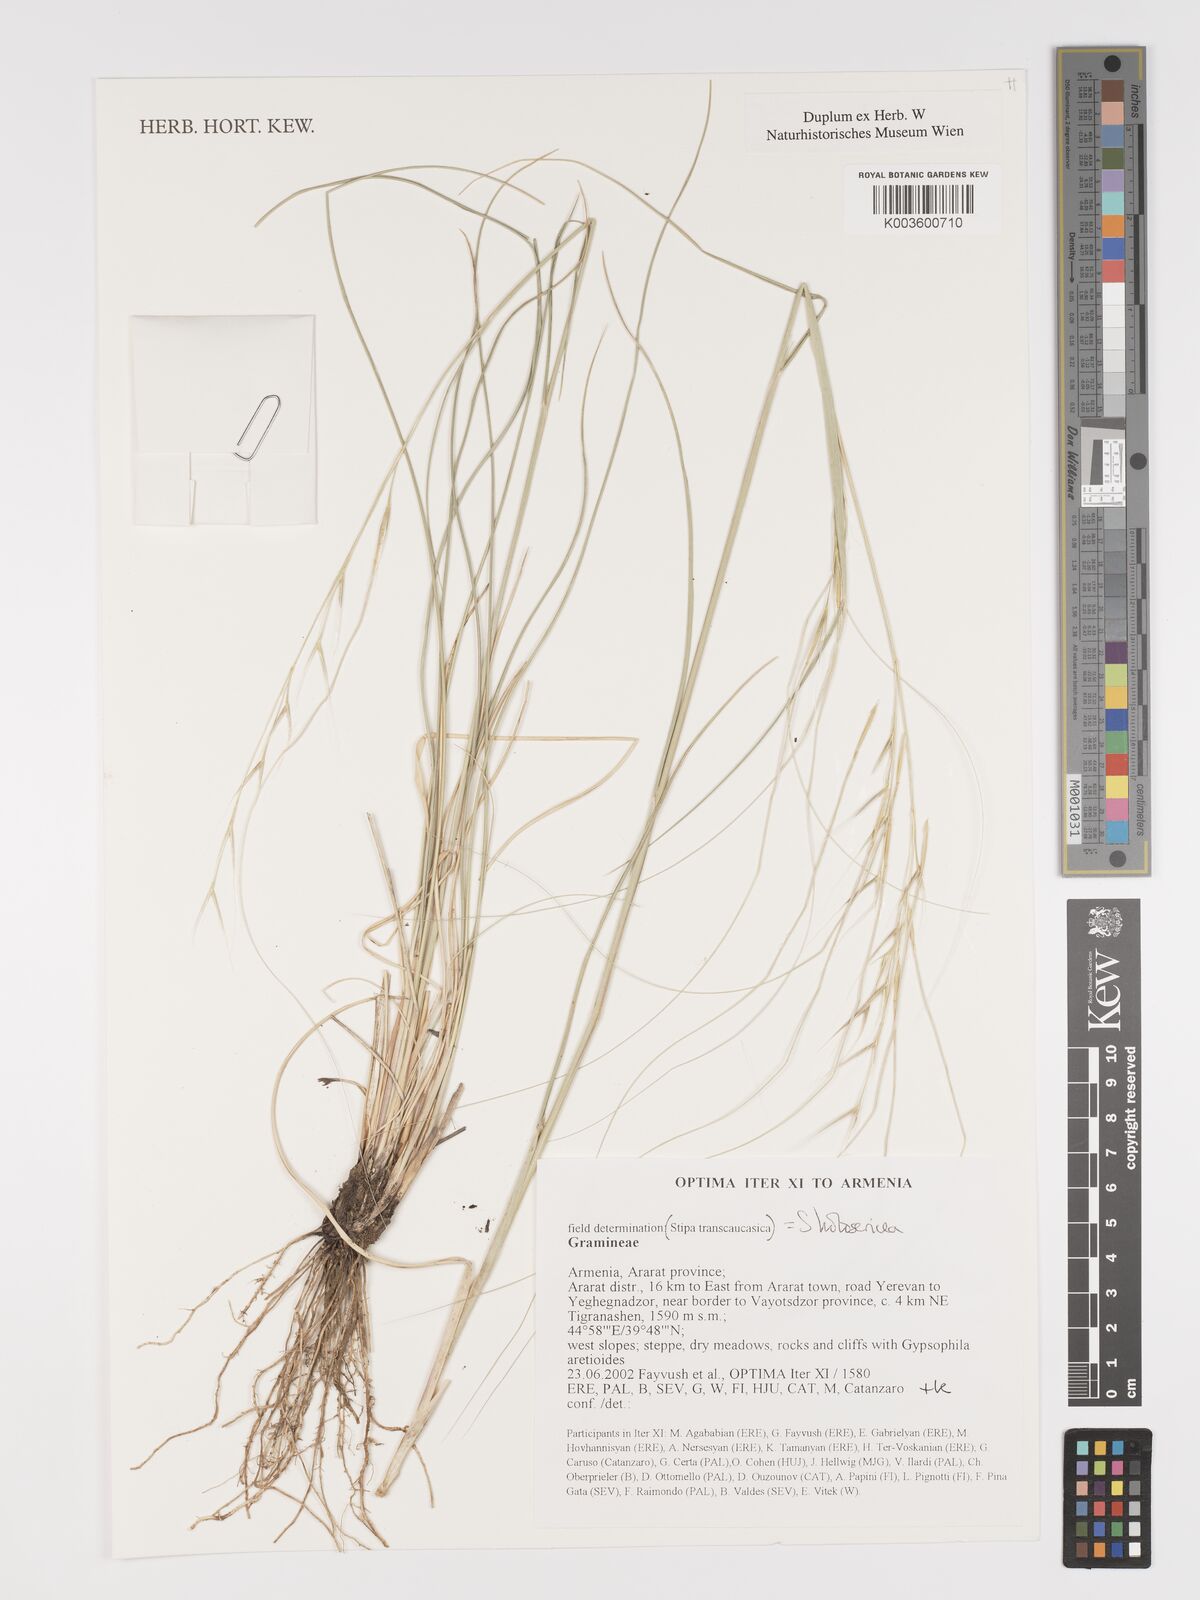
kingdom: Plantae
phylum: Tracheophyta
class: Liliopsida
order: Poales
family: Poaceae
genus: Stipa
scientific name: Stipa holosericea
